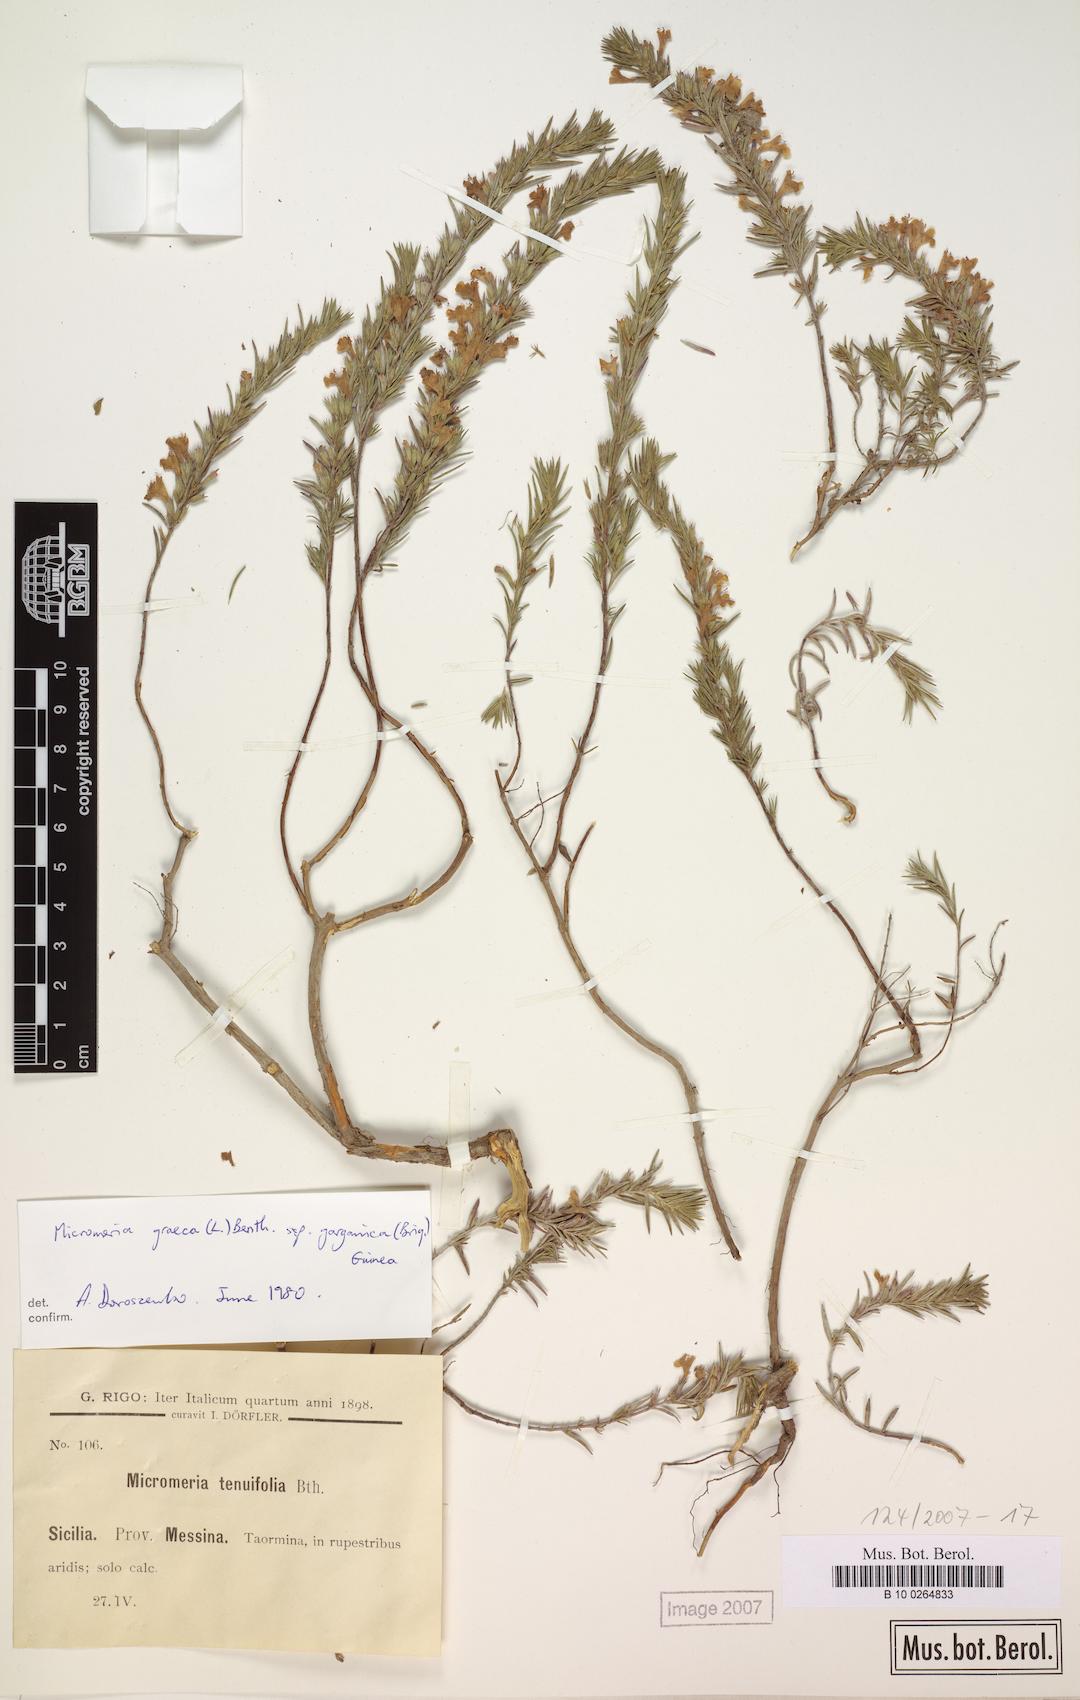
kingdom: Plantae
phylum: Tracheophyta
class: Magnoliopsida
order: Lamiales
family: Lamiaceae
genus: Micromeria
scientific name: Micromeria graeca
